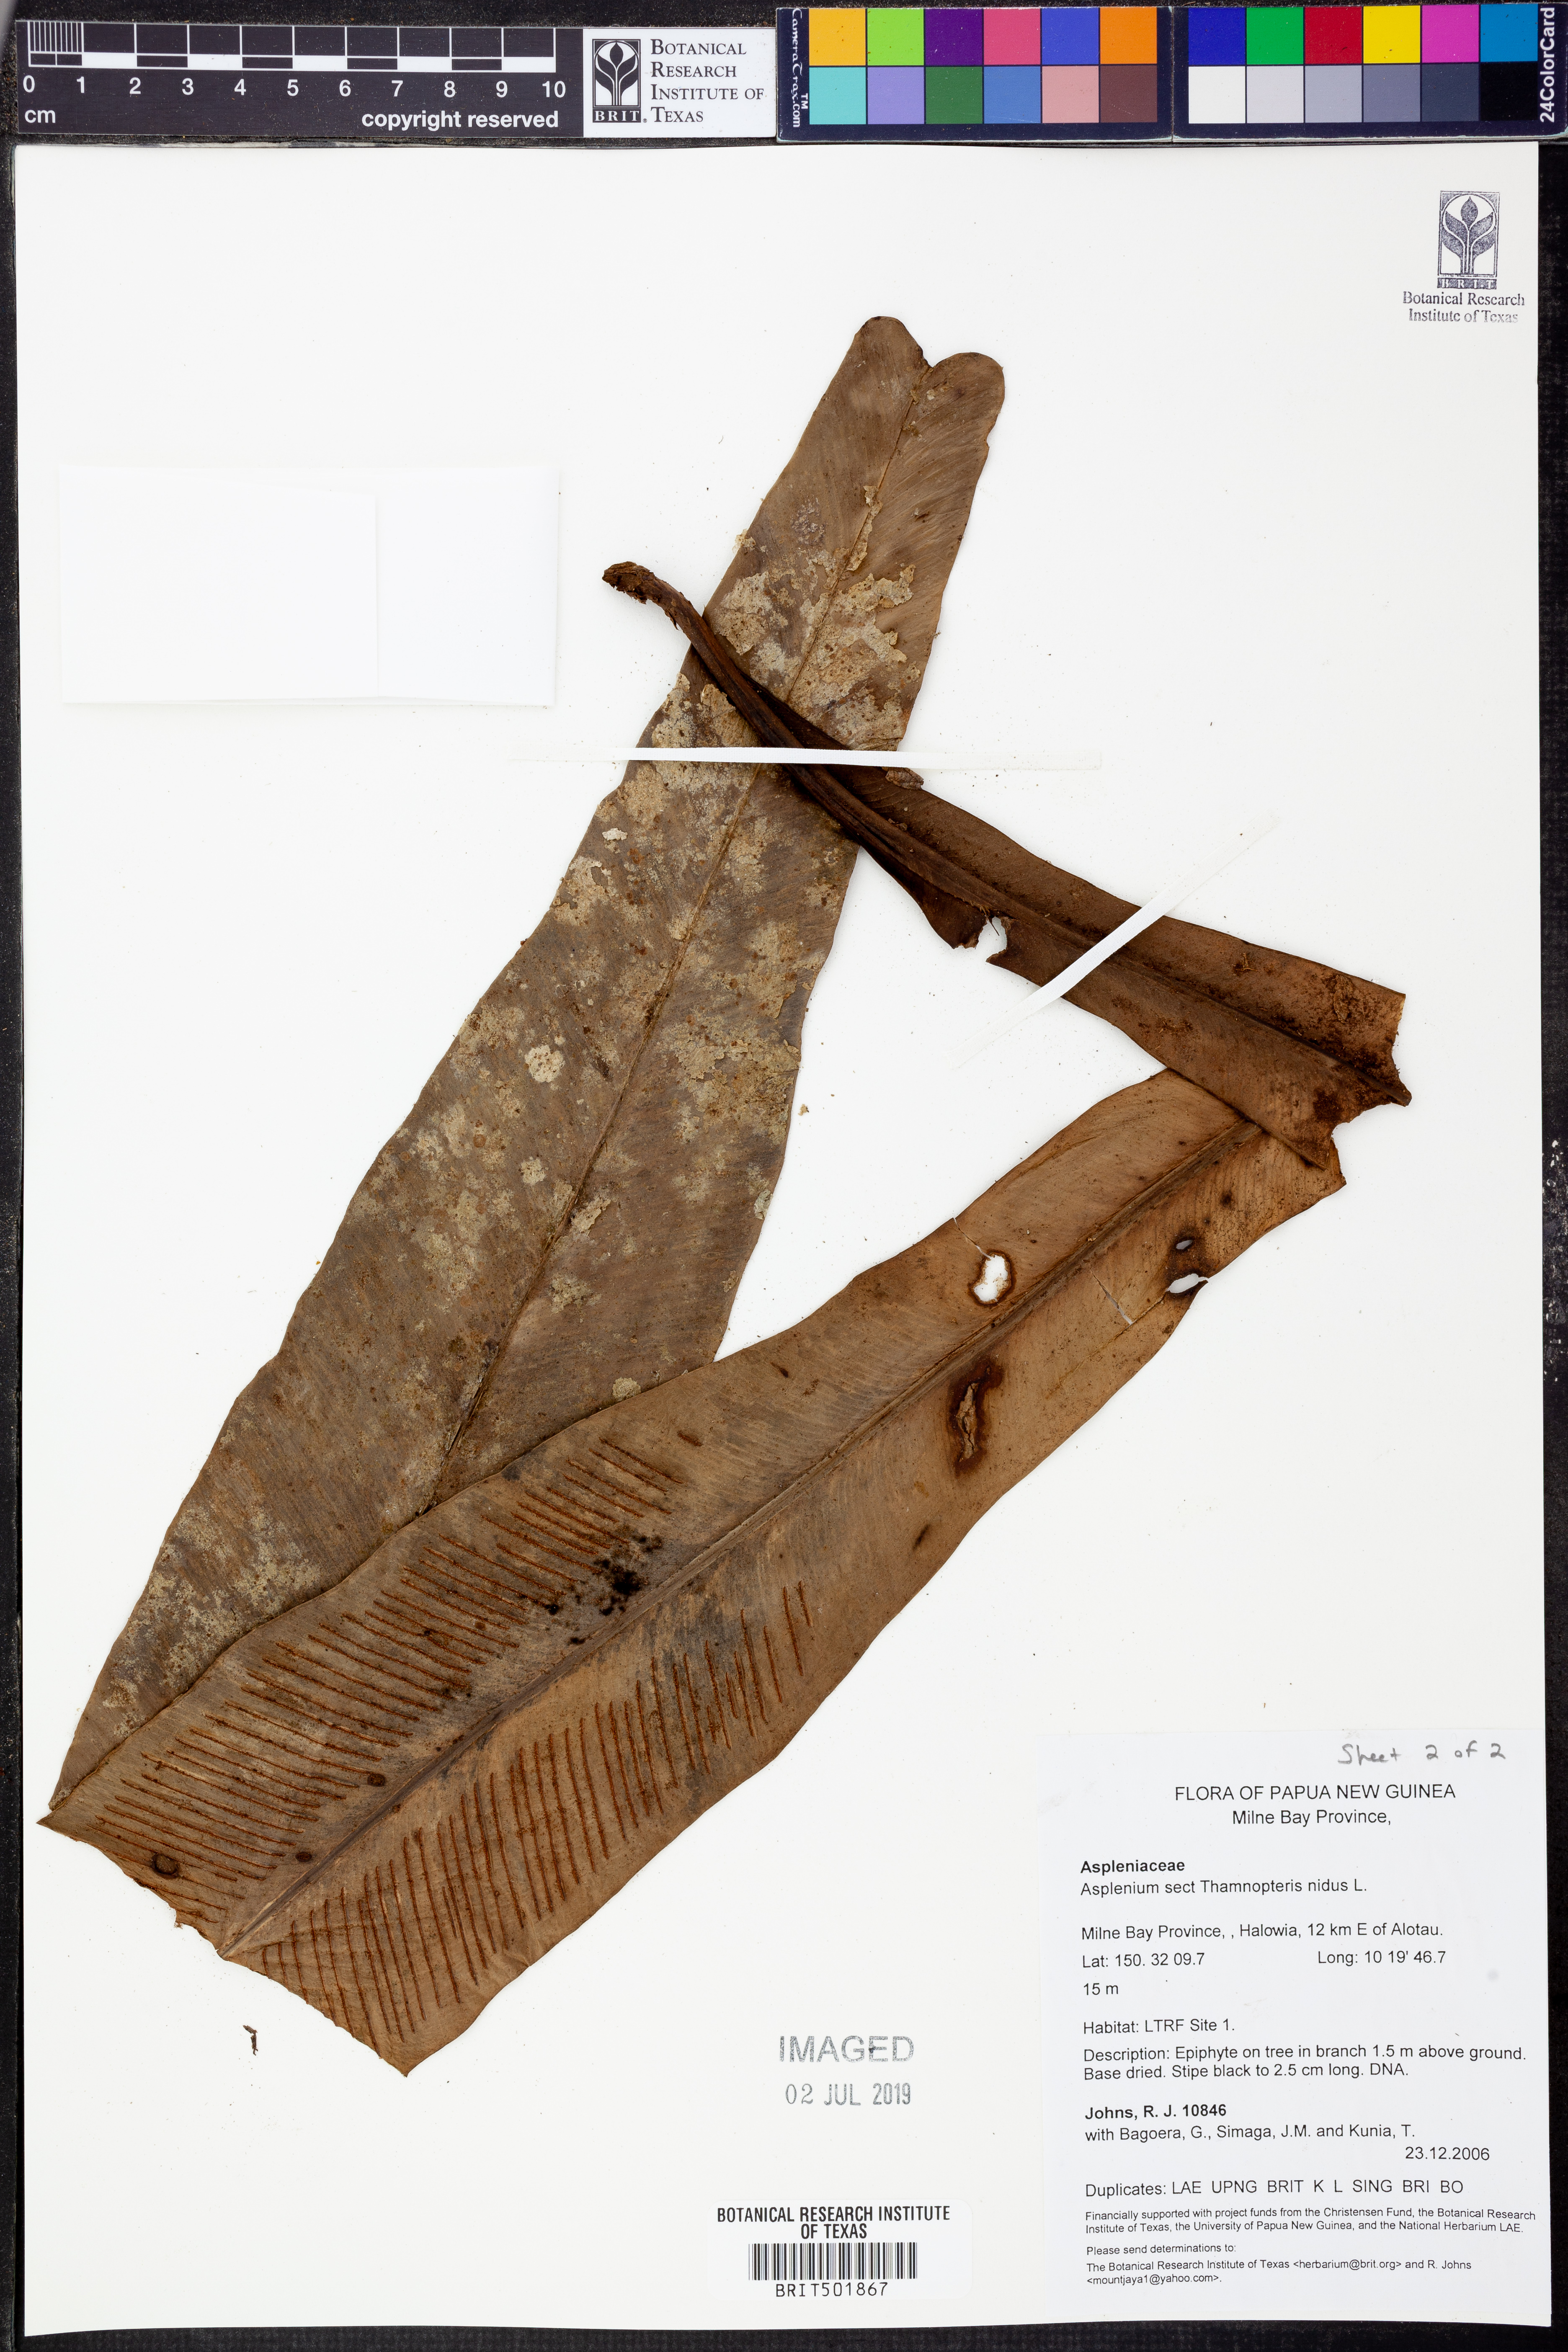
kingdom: Plantae
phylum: Tracheophyta
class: Polypodiopsida
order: Polypodiales
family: Aspleniaceae
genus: Asplenium
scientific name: Asplenium nidus
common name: Bird's-nest fern
